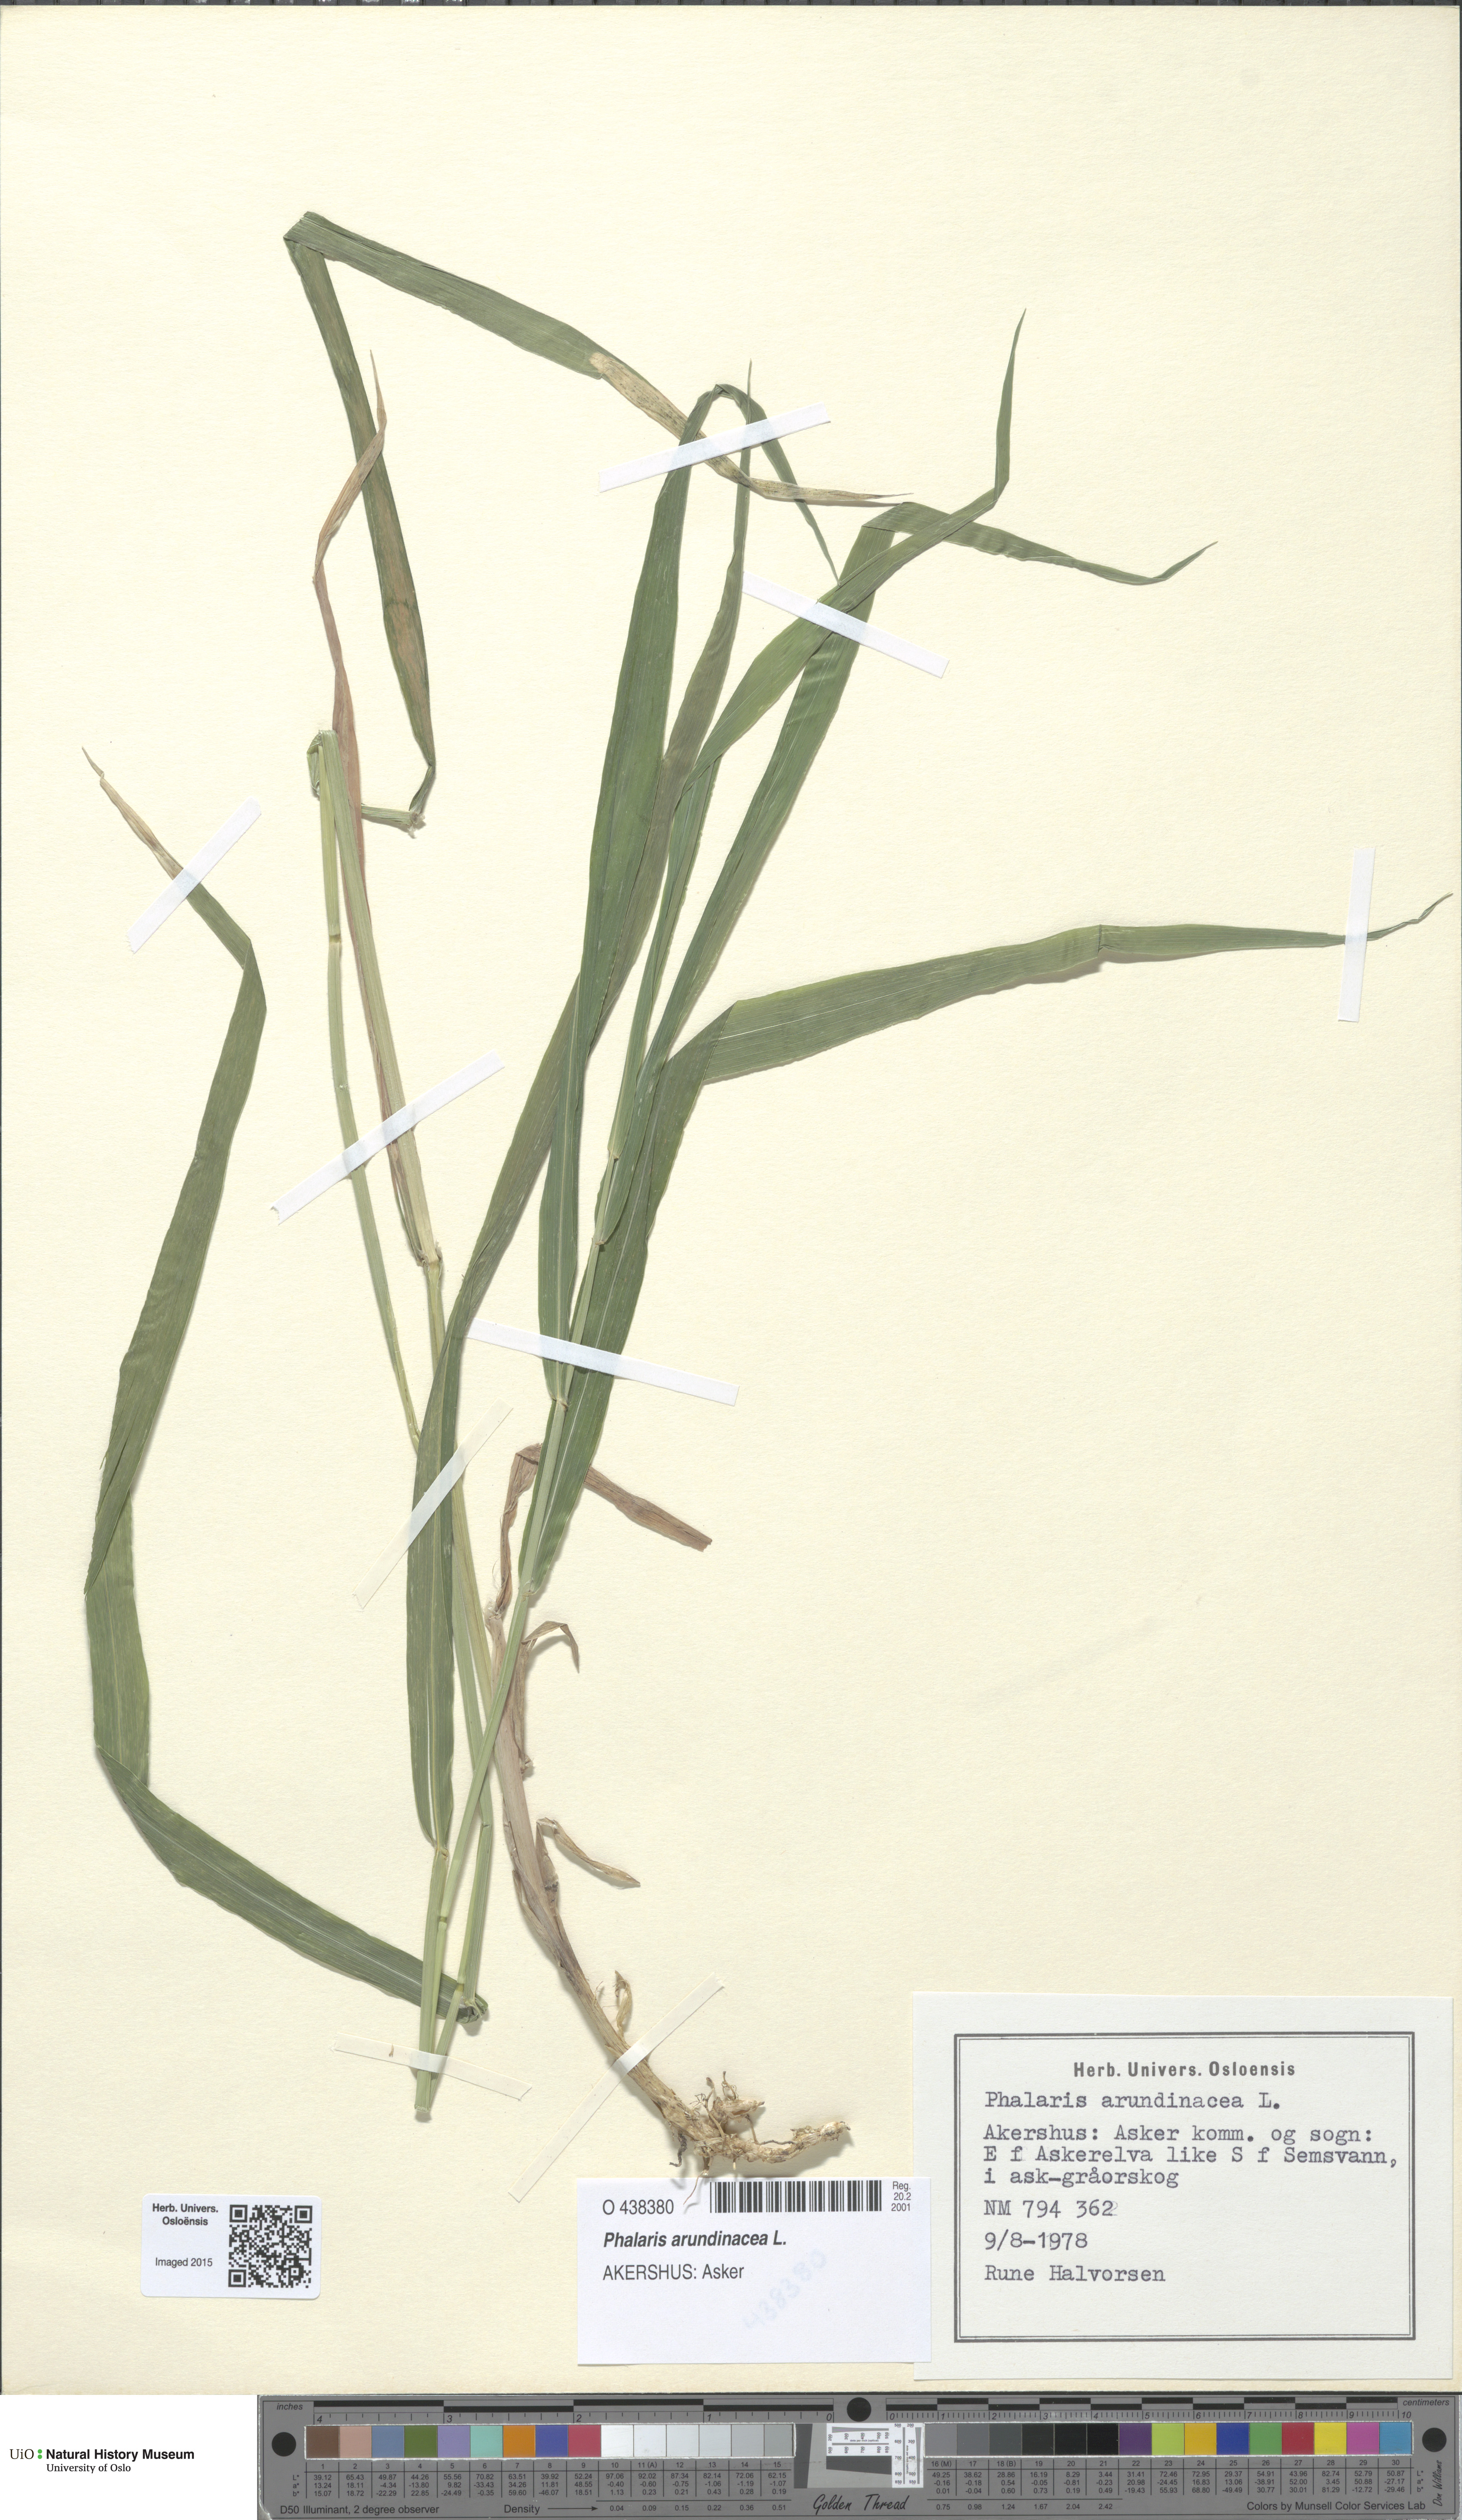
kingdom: Plantae
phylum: Tracheophyta
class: Liliopsida
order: Poales
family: Poaceae
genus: Phalaris
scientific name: Phalaris arundinacea
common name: Reed canary-grass
